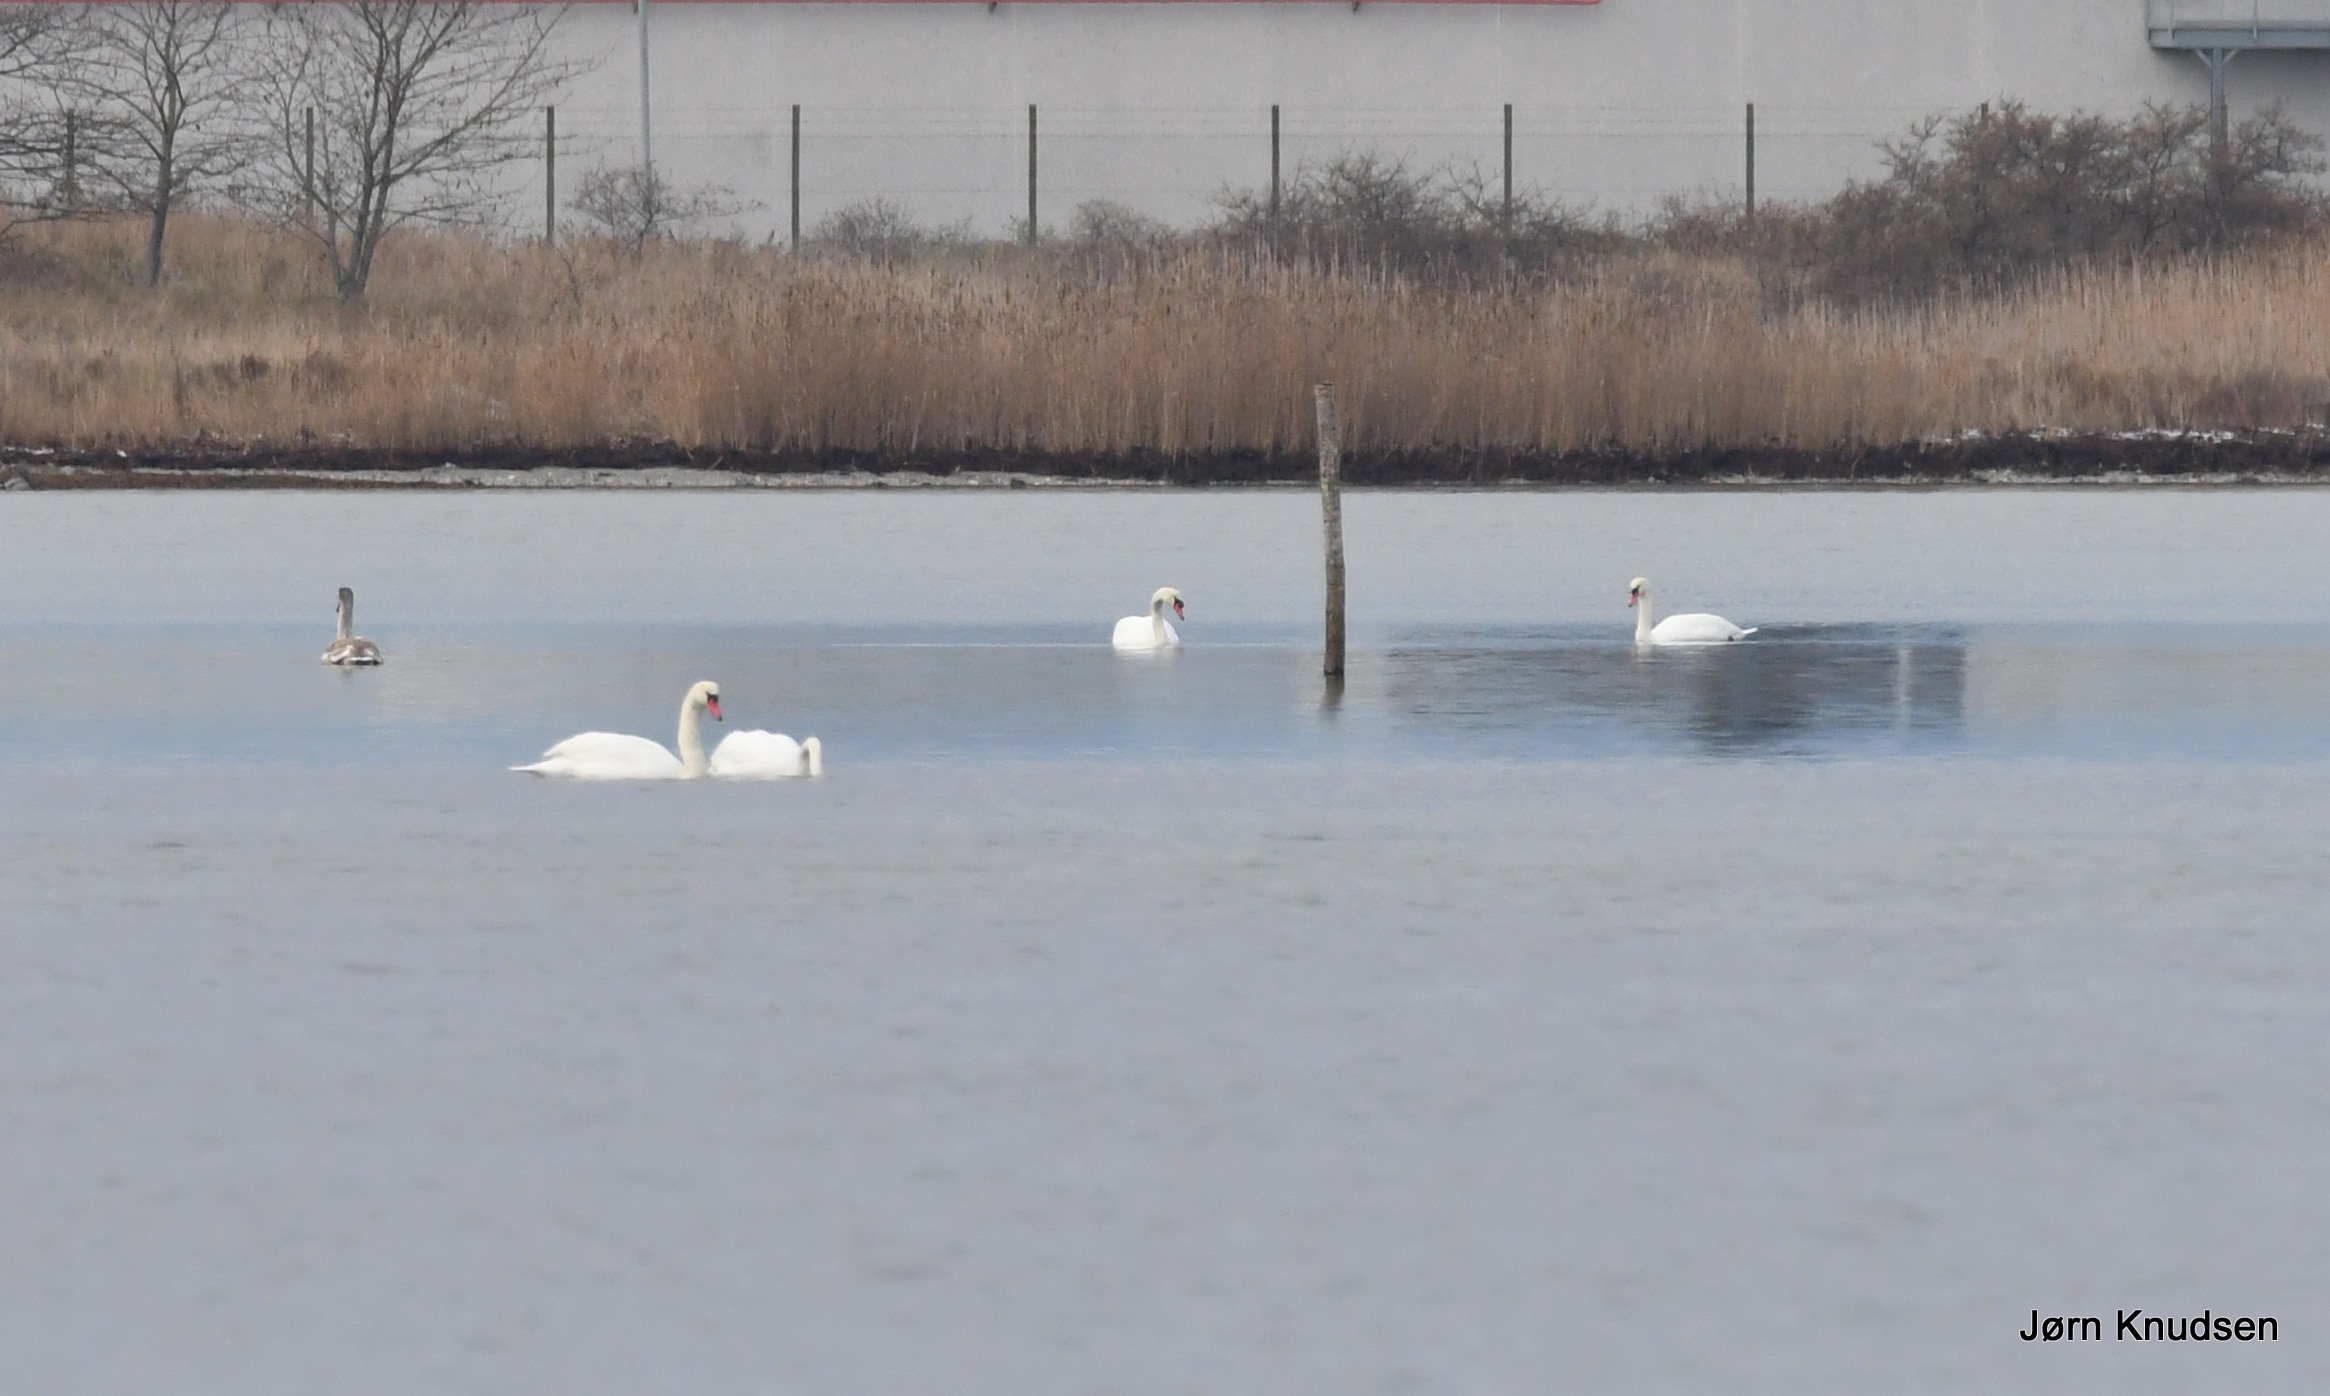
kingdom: Animalia
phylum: Chordata
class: Aves
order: Anseriformes
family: Anatidae
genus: Cygnus
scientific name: Cygnus olor
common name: Knopsvane
